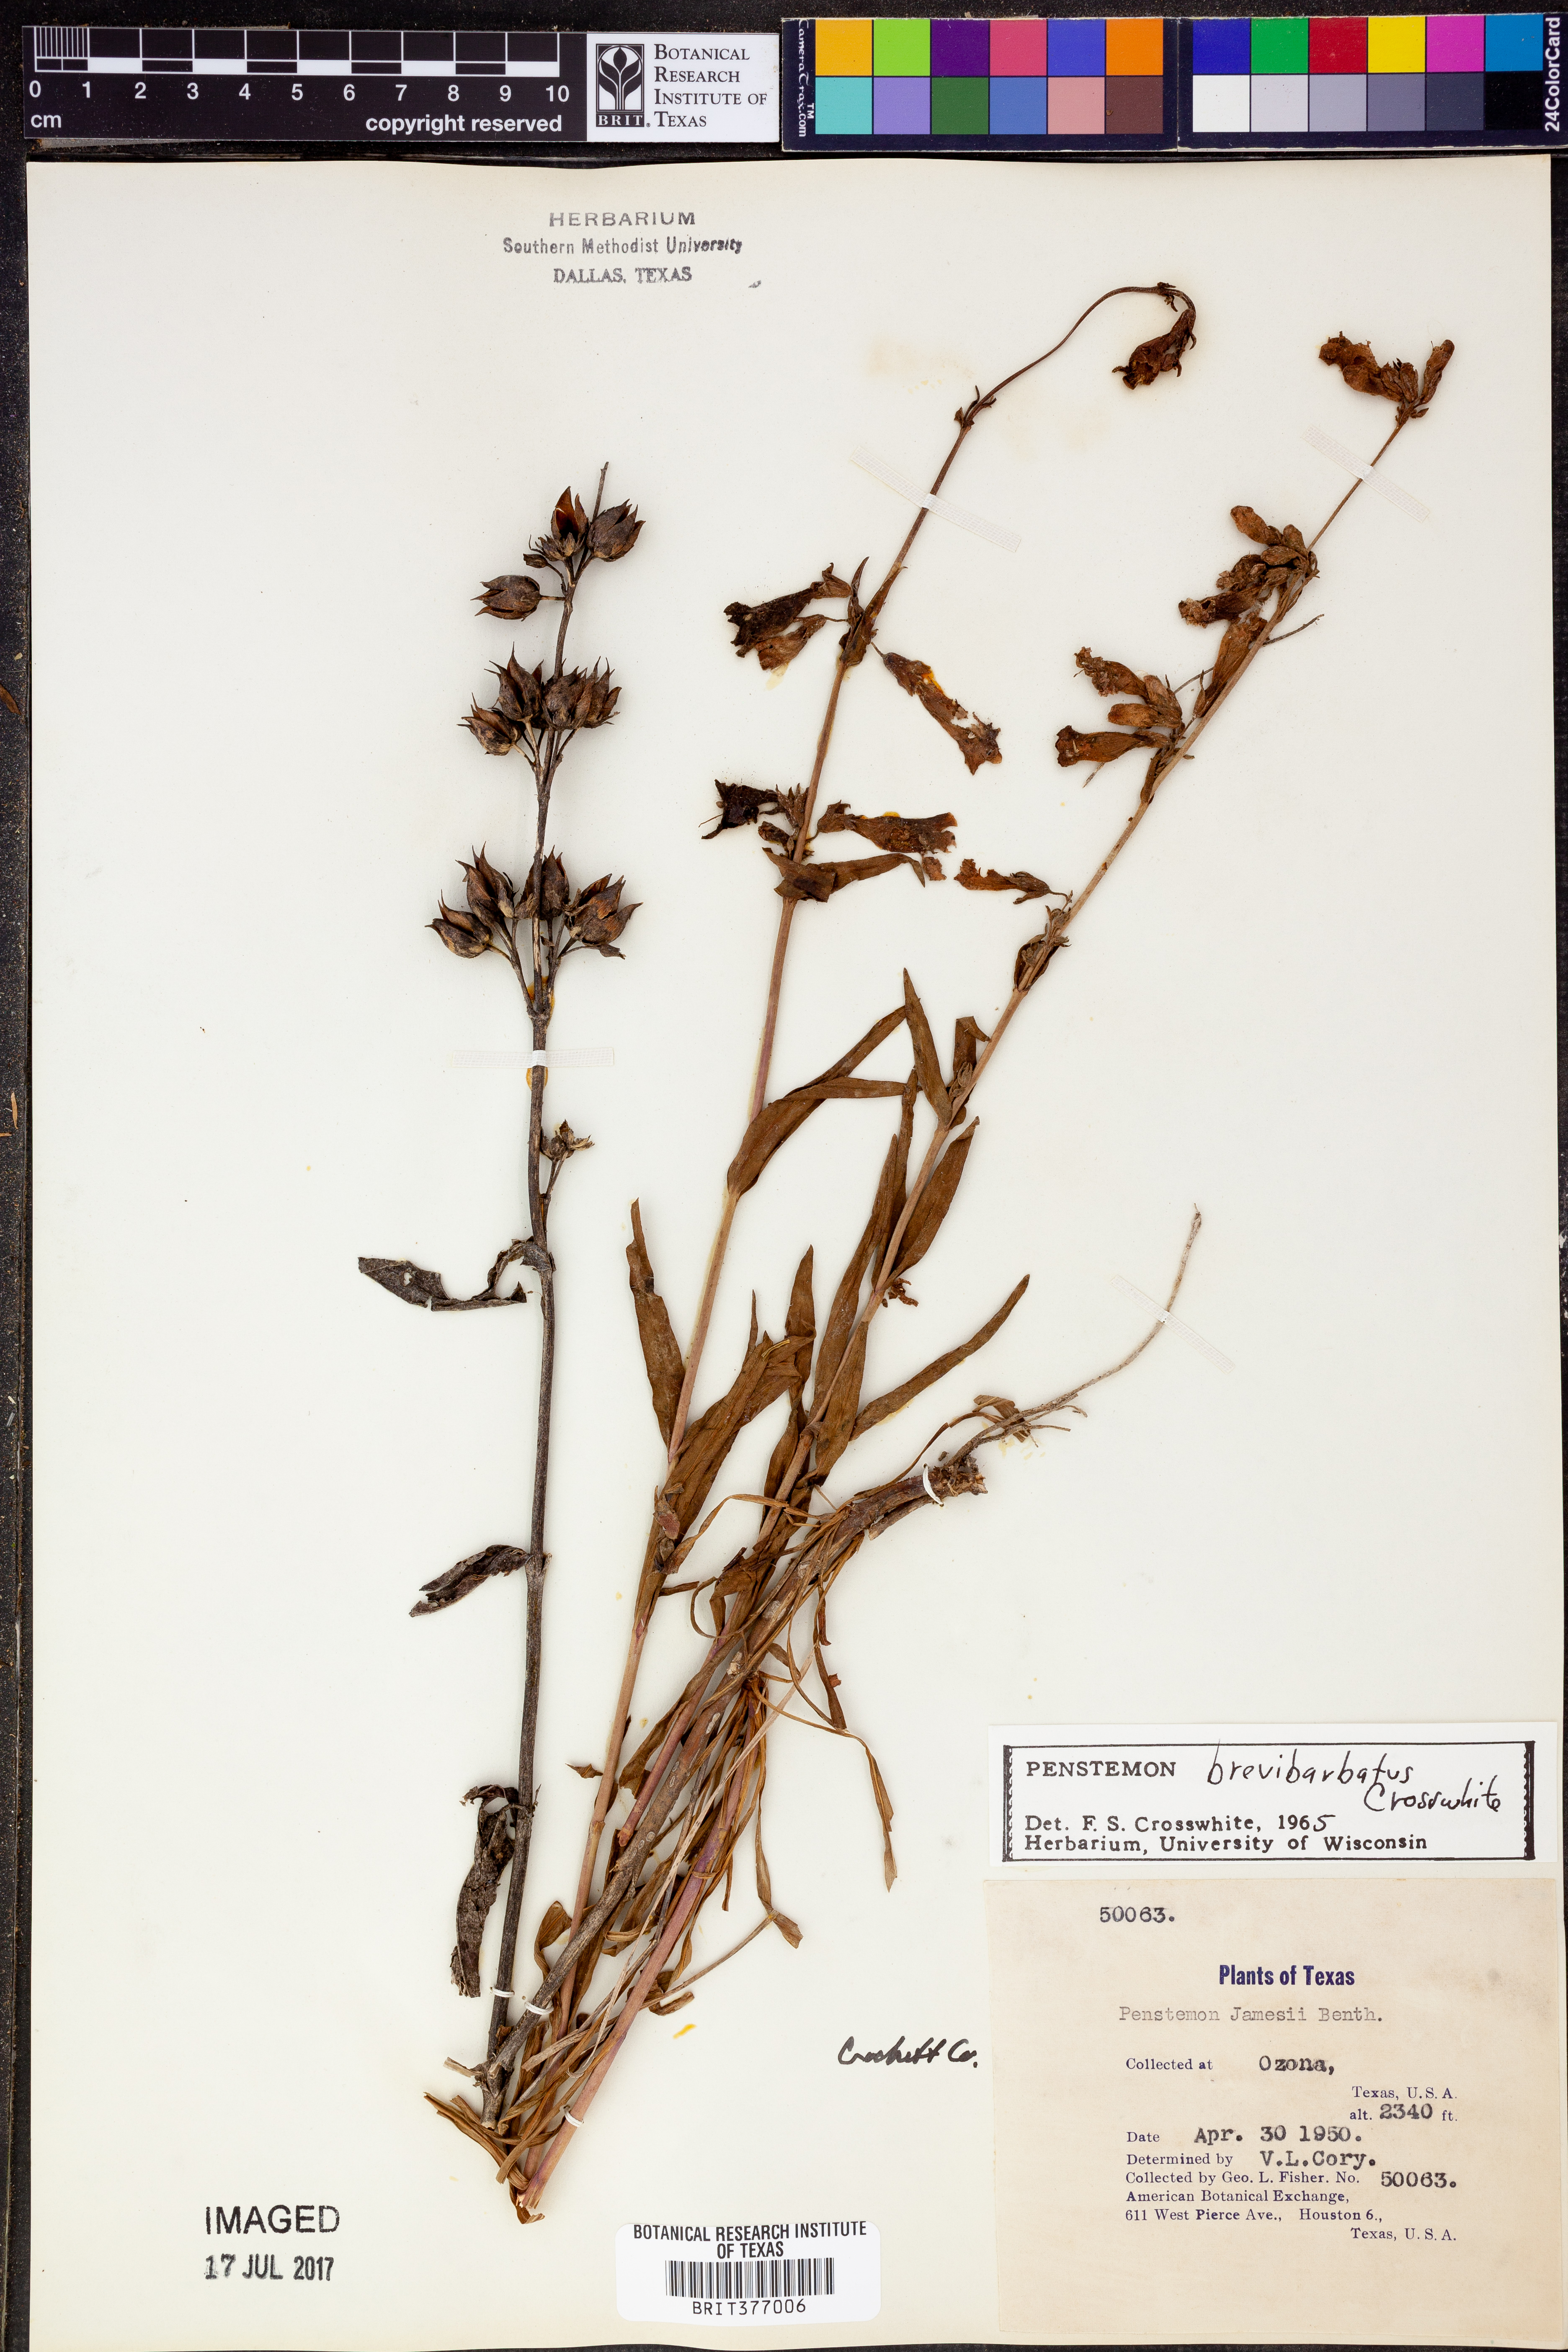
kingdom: Plantae
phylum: Tracheophyta
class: Magnoliopsida
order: Lamiales
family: Plantaginaceae
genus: Penstemon
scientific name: Penstemon brevibarbatus
